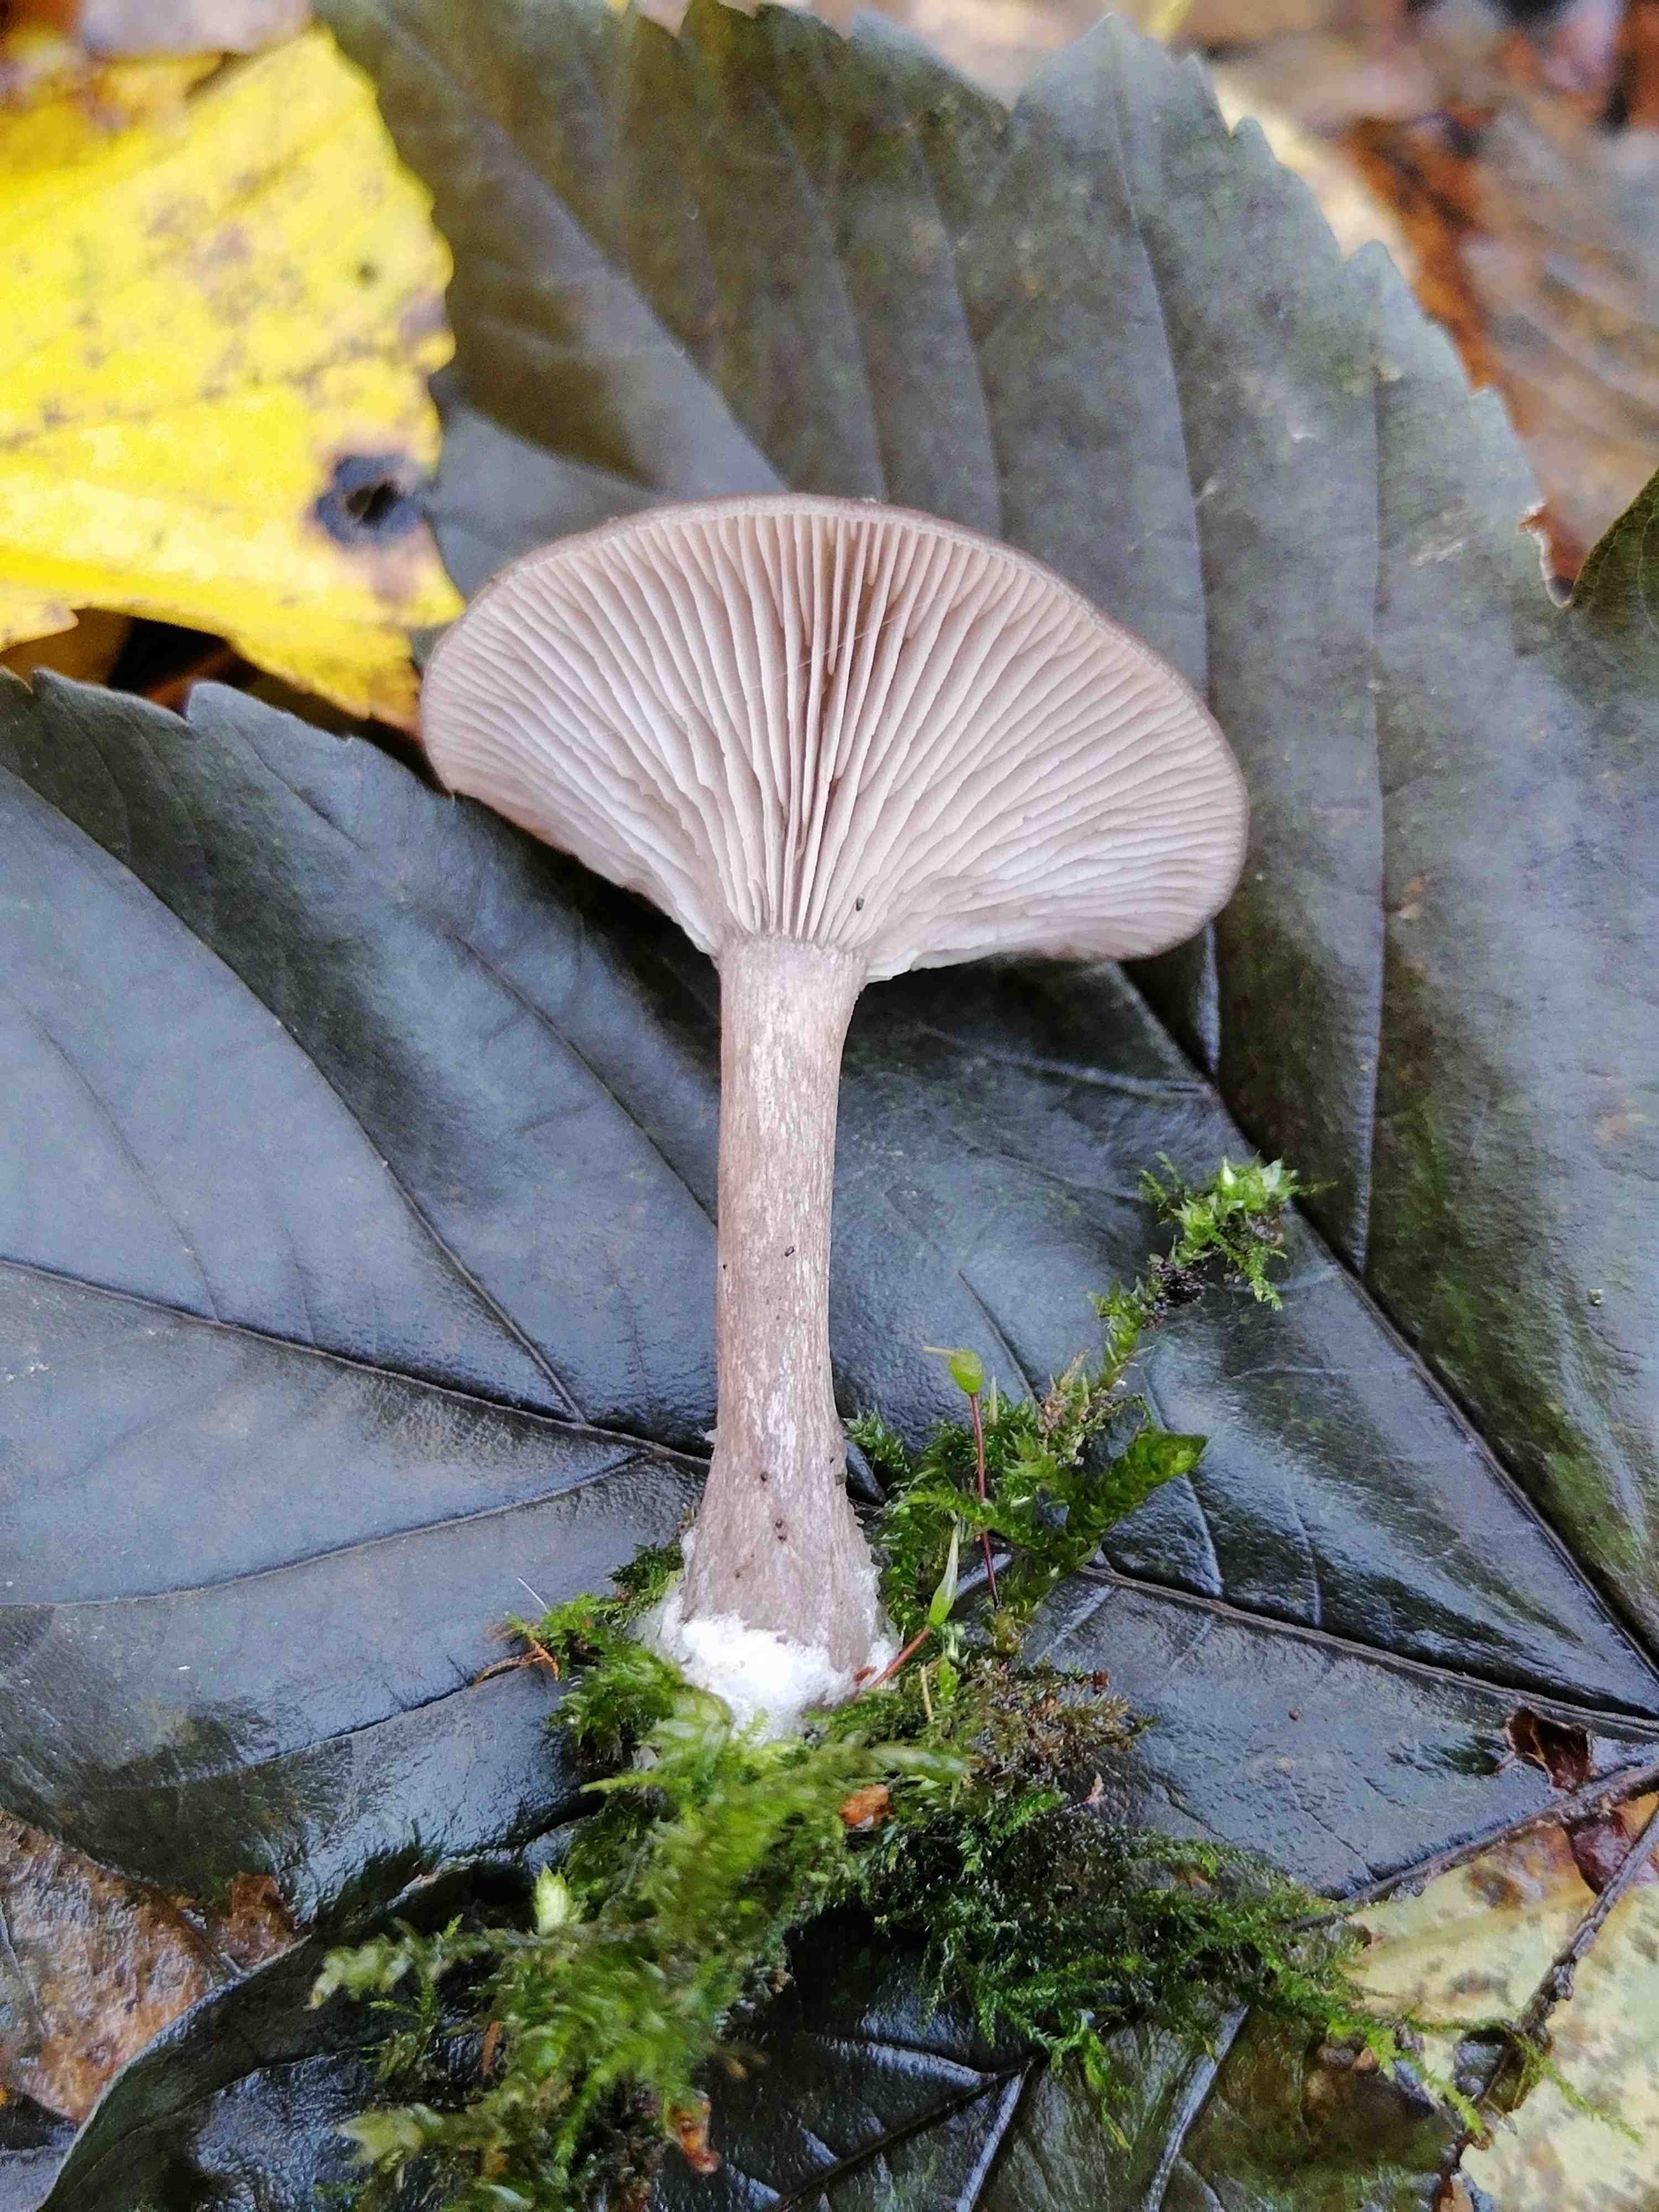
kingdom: Fungi
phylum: Basidiomycota
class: Agaricomycetes
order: Agaricales
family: Pseudoclitocybaceae
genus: Pseudoclitocybe
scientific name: Pseudoclitocybe cyathiformis
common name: almindelig bægertragthat
